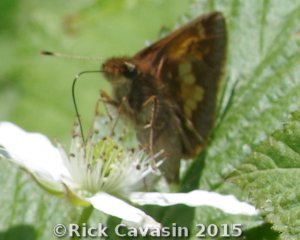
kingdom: Animalia
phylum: Arthropoda
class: Insecta
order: Lepidoptera
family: Hesperiidae
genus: Lon
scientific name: Lon hobomok
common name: Hobomok Skipper
